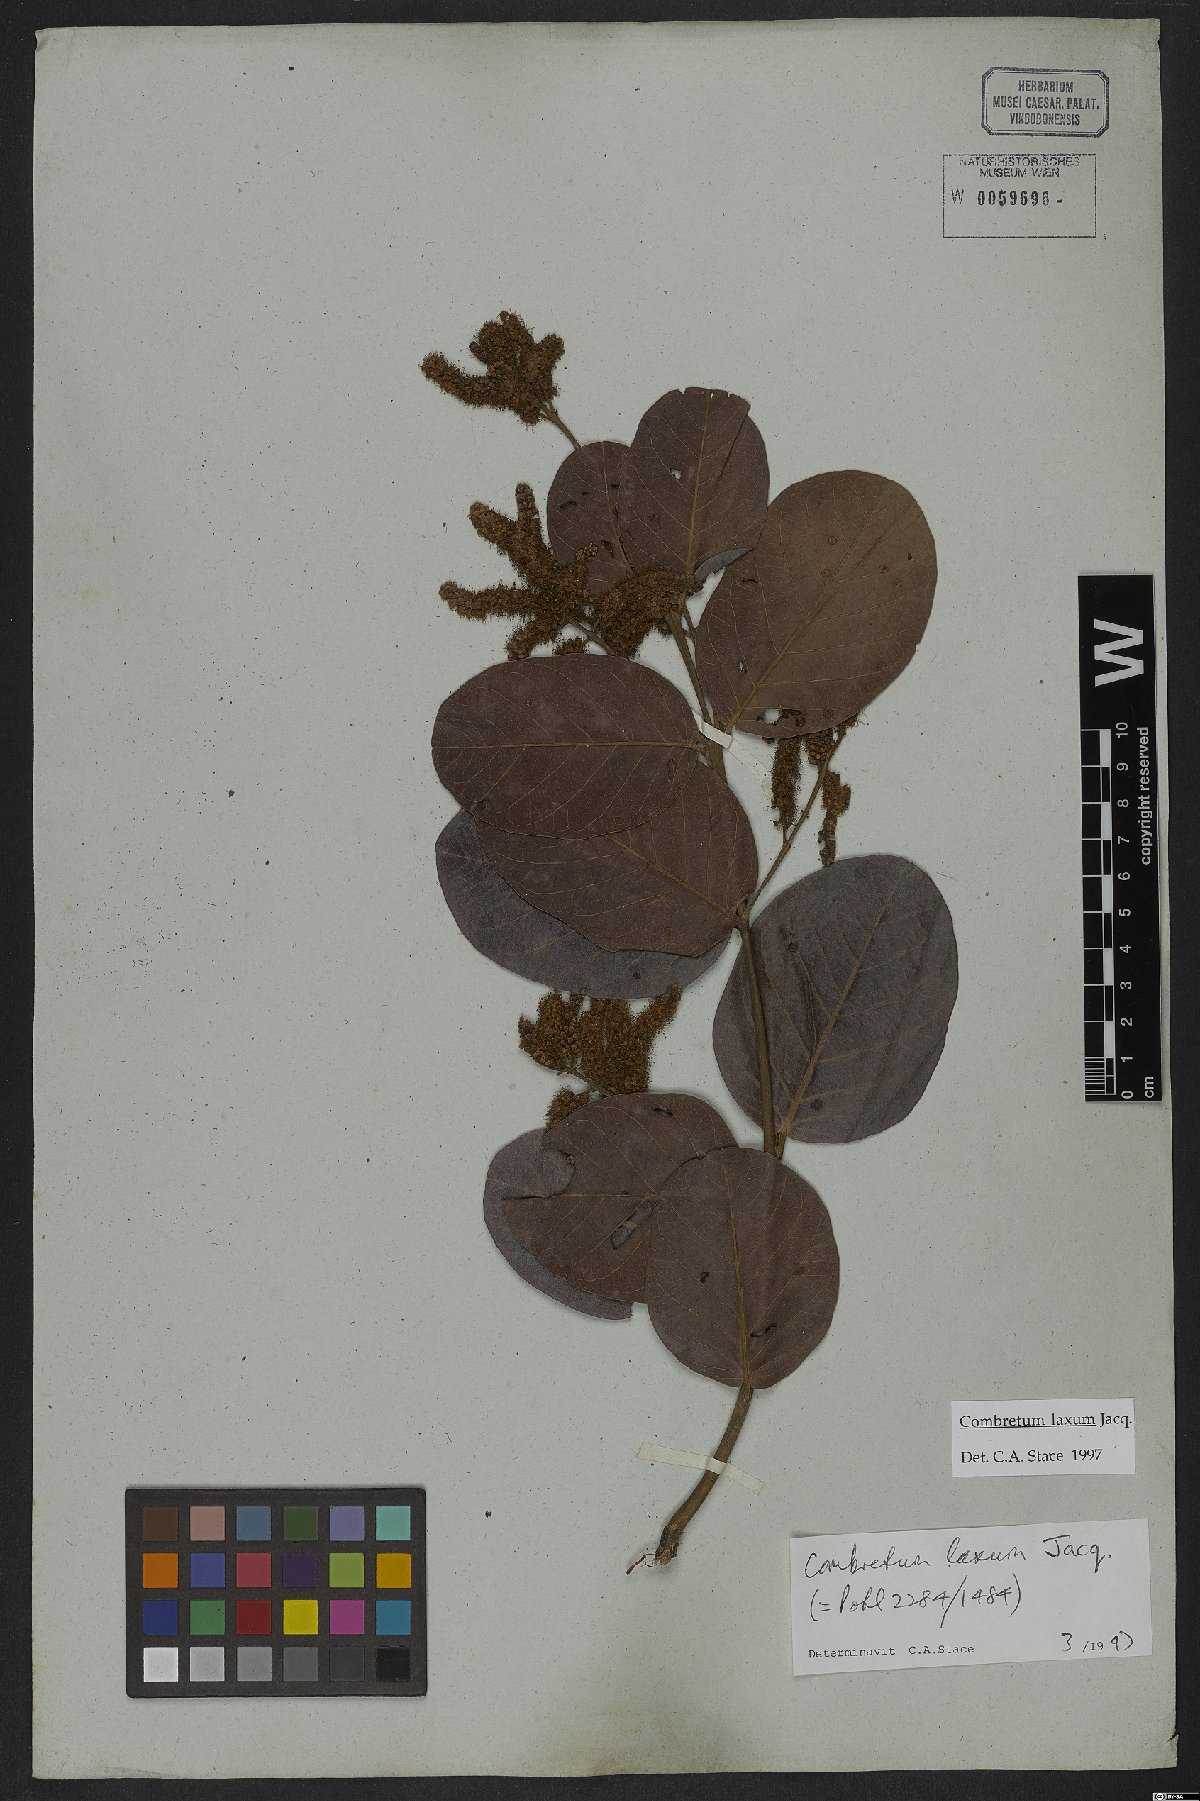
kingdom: Plantae
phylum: Tracheophyta
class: Magnoliopsida
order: Myrtales
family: Combretaceae
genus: Combretum
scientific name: Combretum laxum
